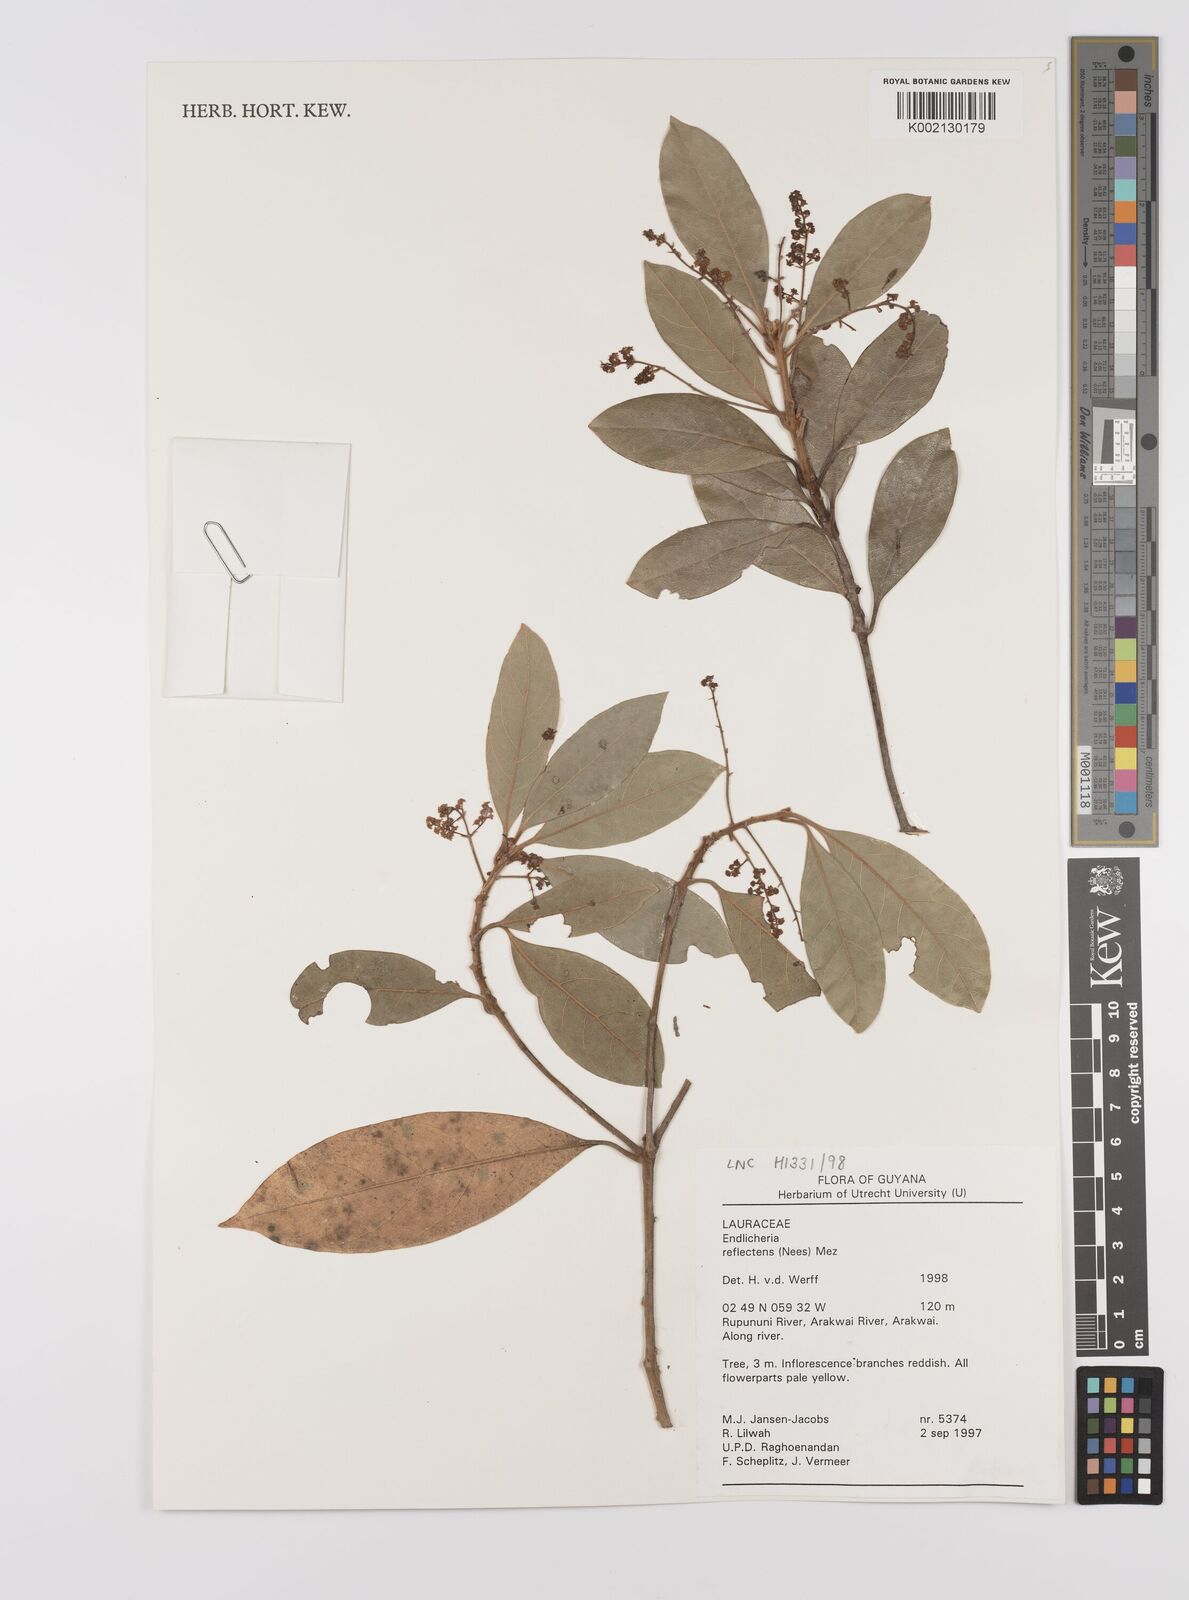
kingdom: Plantae
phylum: Tracheophyta
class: Magnoliopsida
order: Laurales
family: Lauraceae
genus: Endlicheria
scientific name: Endlicheria reflectens
